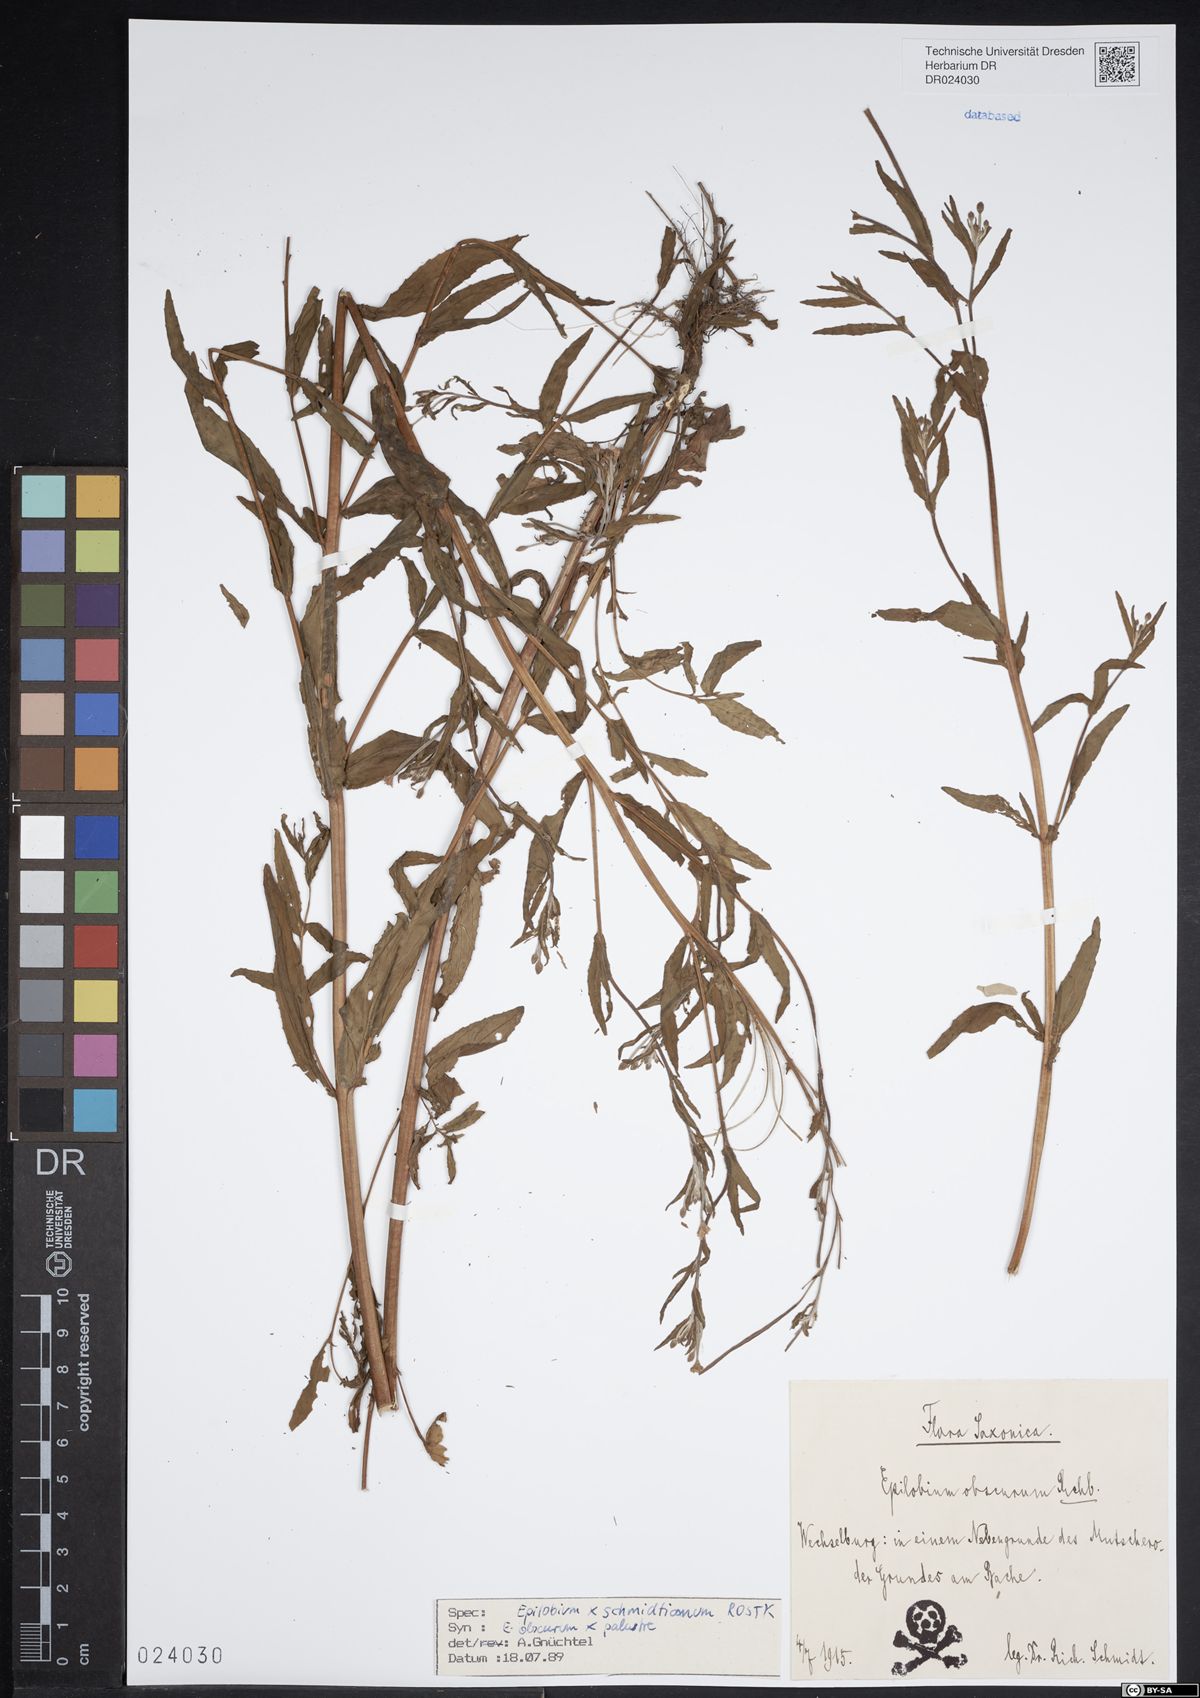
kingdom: Plantae
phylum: Tracheophyta
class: Magnoliopsida
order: Myrtales
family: Onagraceae
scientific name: Onagraceae
